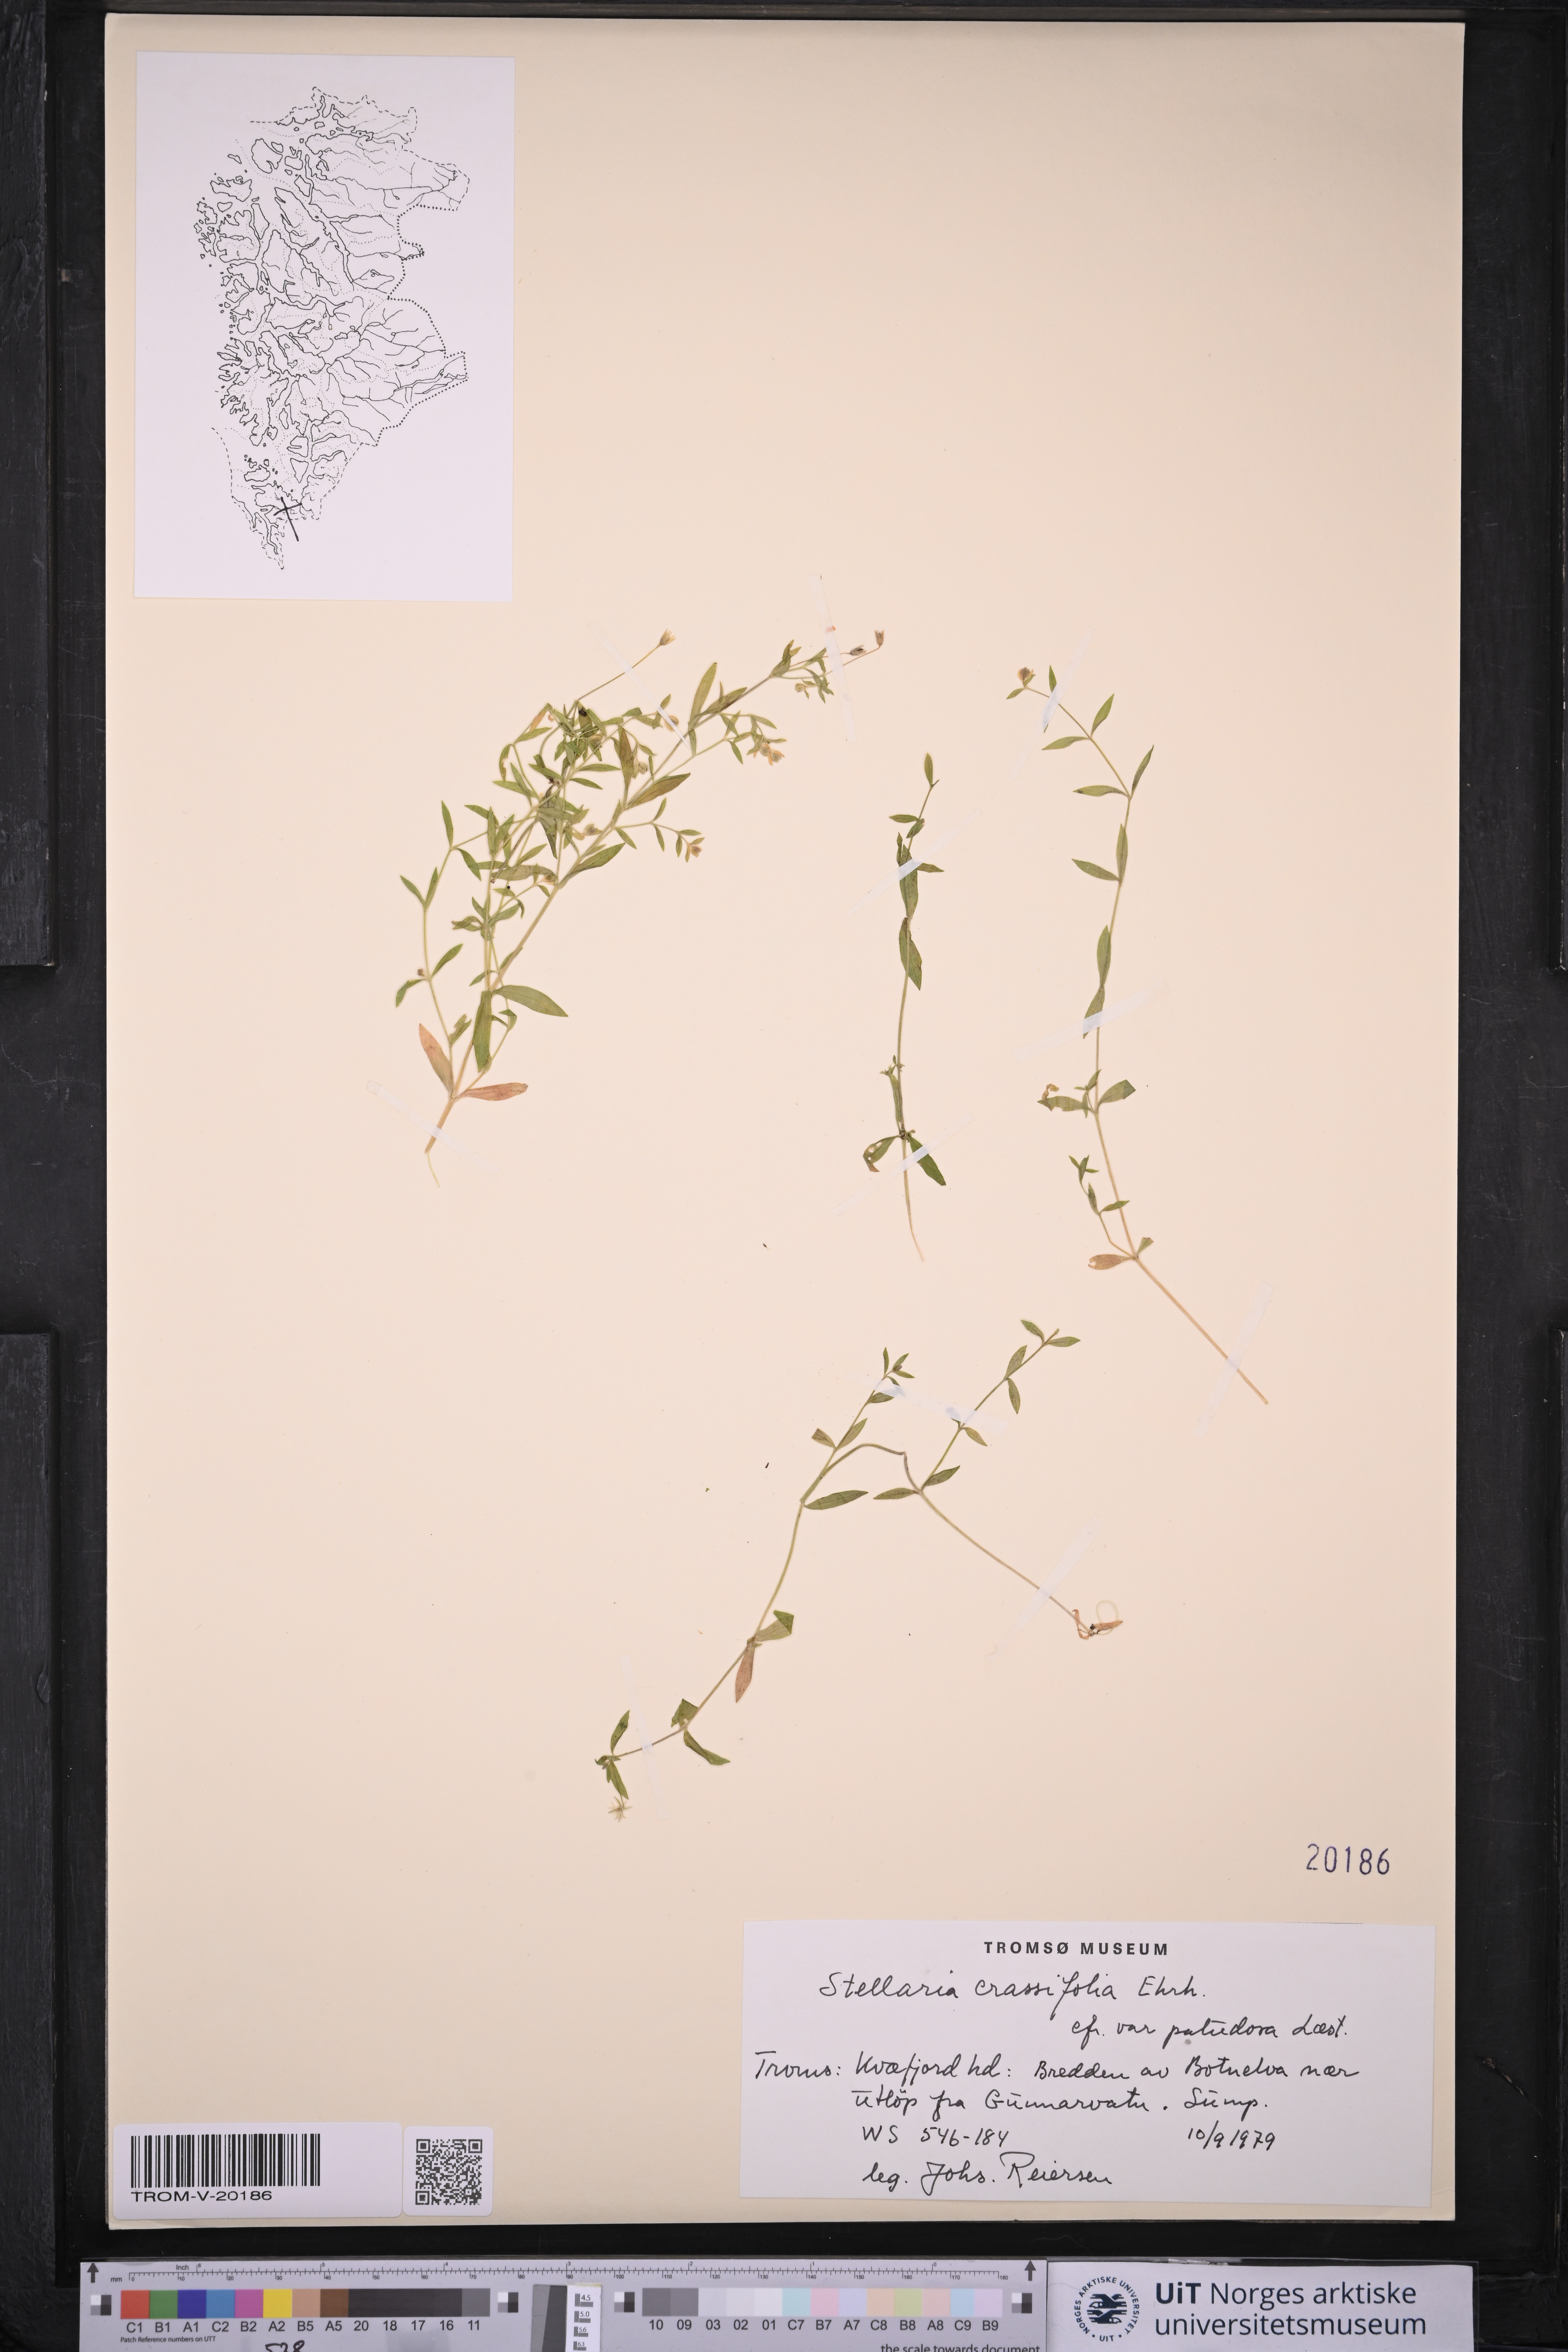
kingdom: Plantae
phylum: Tracheophyta
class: Magnoliopsida
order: Caryophyllales
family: Caryophyllaceae
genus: Stellaria
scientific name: Stellaria crassifolia
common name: Fleshy starwort
